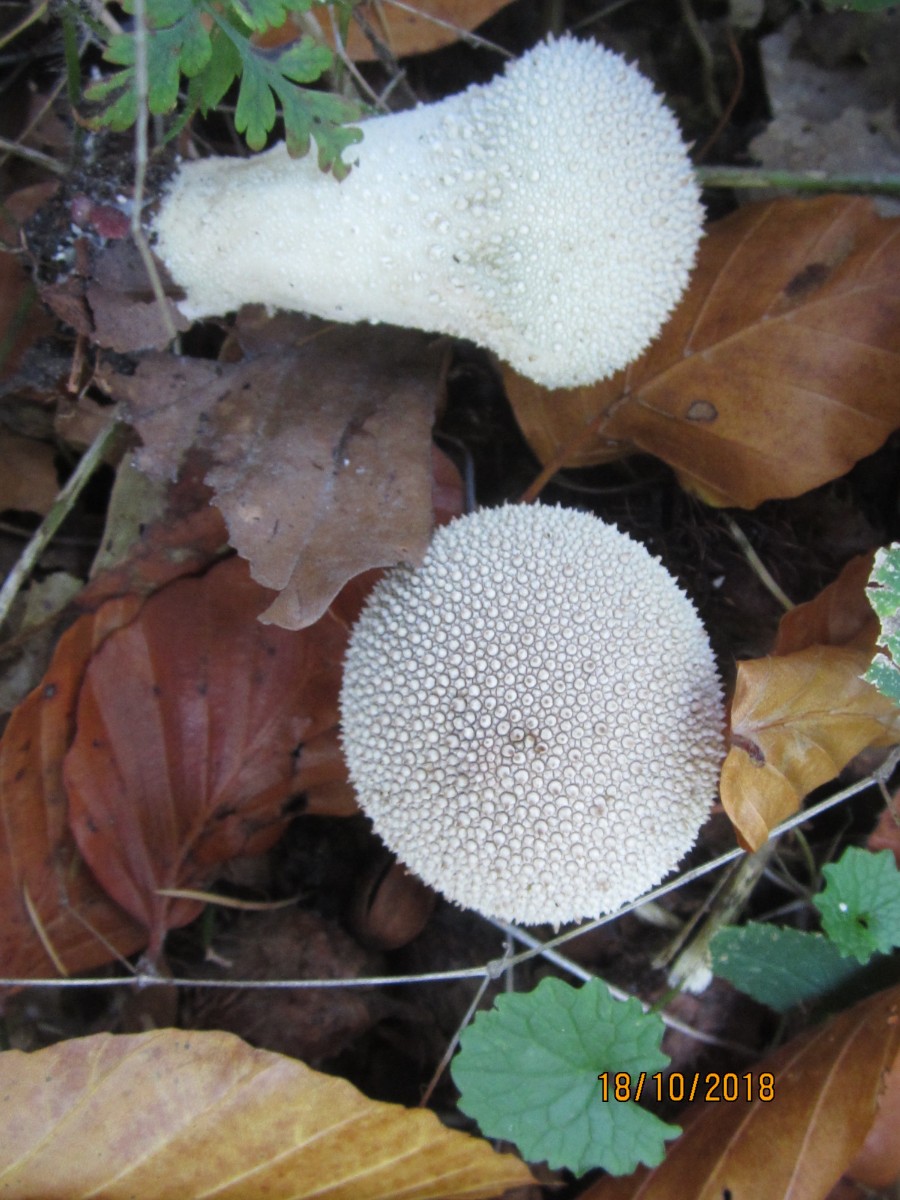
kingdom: Fungi
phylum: Basidiomycota
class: Agaricomycetes
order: Agaricales
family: Lycoperdaceae
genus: Lycoperdon
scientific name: Lycoperdon perlatum
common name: krystal-støvbold
